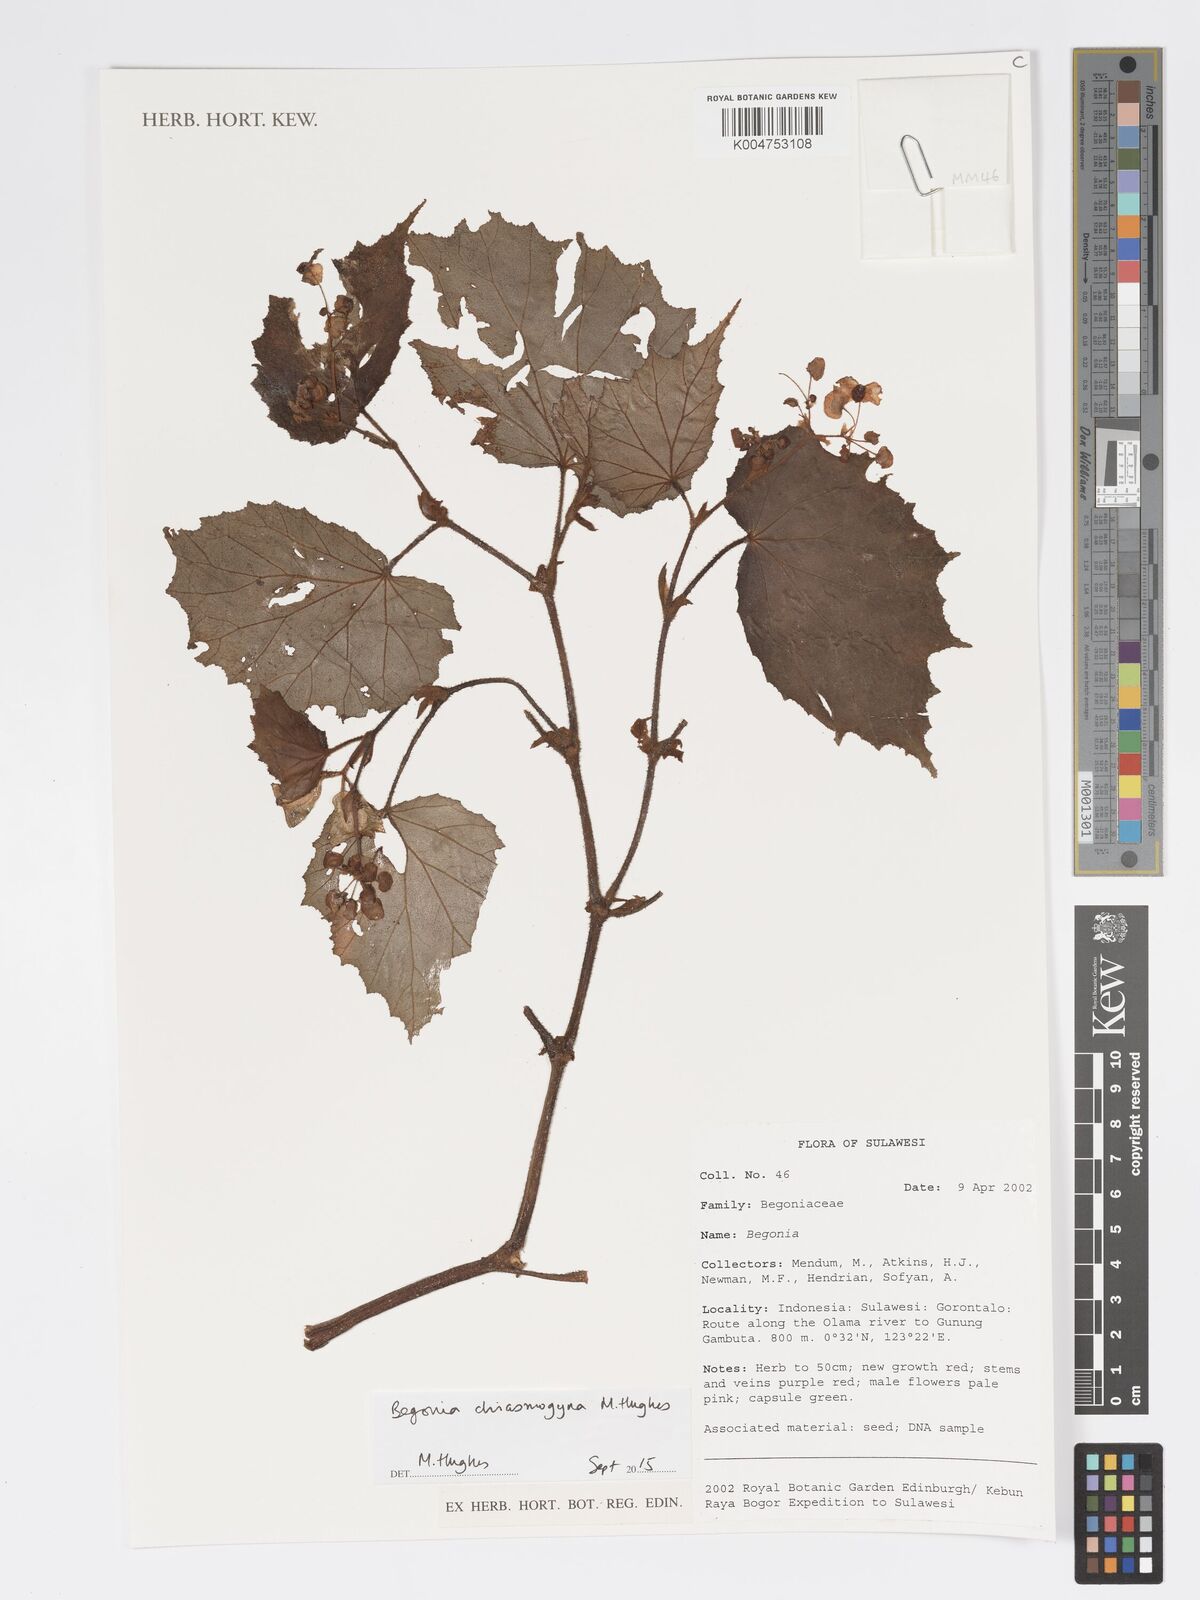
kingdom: Plantae
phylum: Tracheophyta
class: Magnoliopsida
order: Cucurbitales
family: Begoniaceae
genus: Begonia
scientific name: Begonia chiasmogyna
